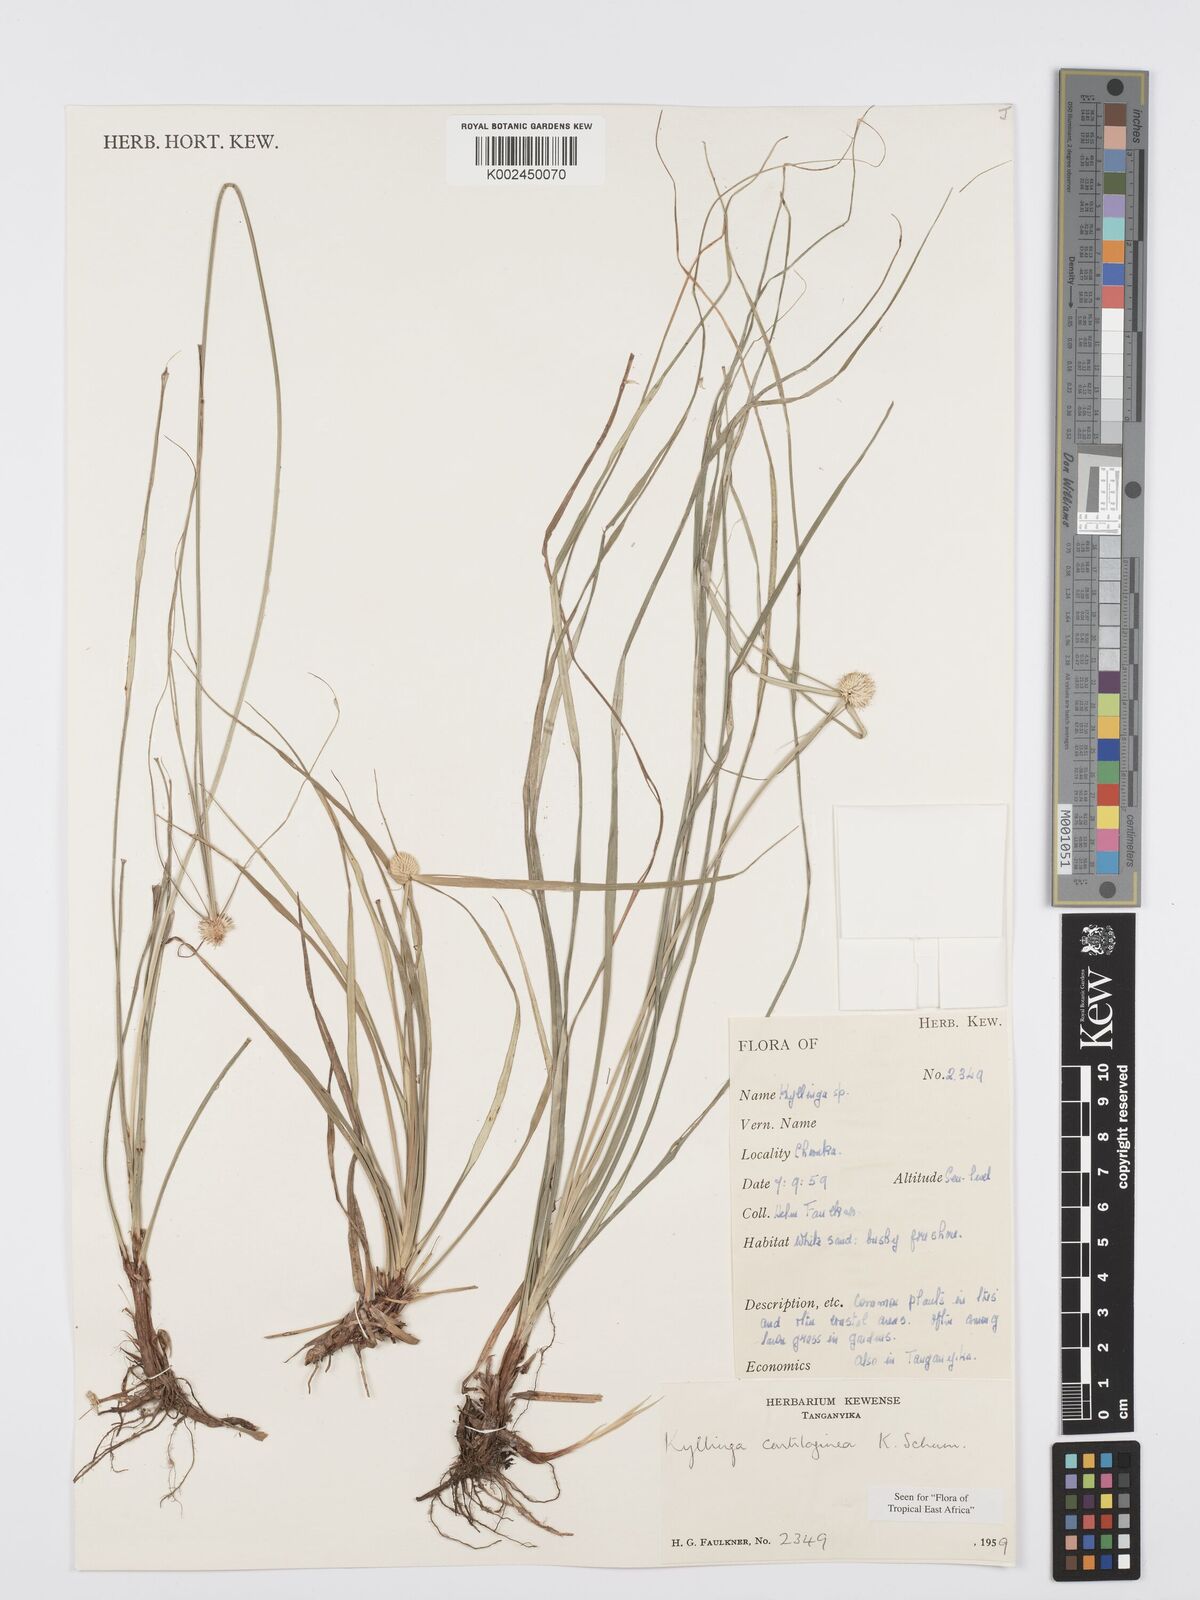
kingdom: Plantae
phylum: Tracheophyta
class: Liliopsida
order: Poales
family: Cyperaceae
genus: Cyperus
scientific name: Cyperus cartilagineus
